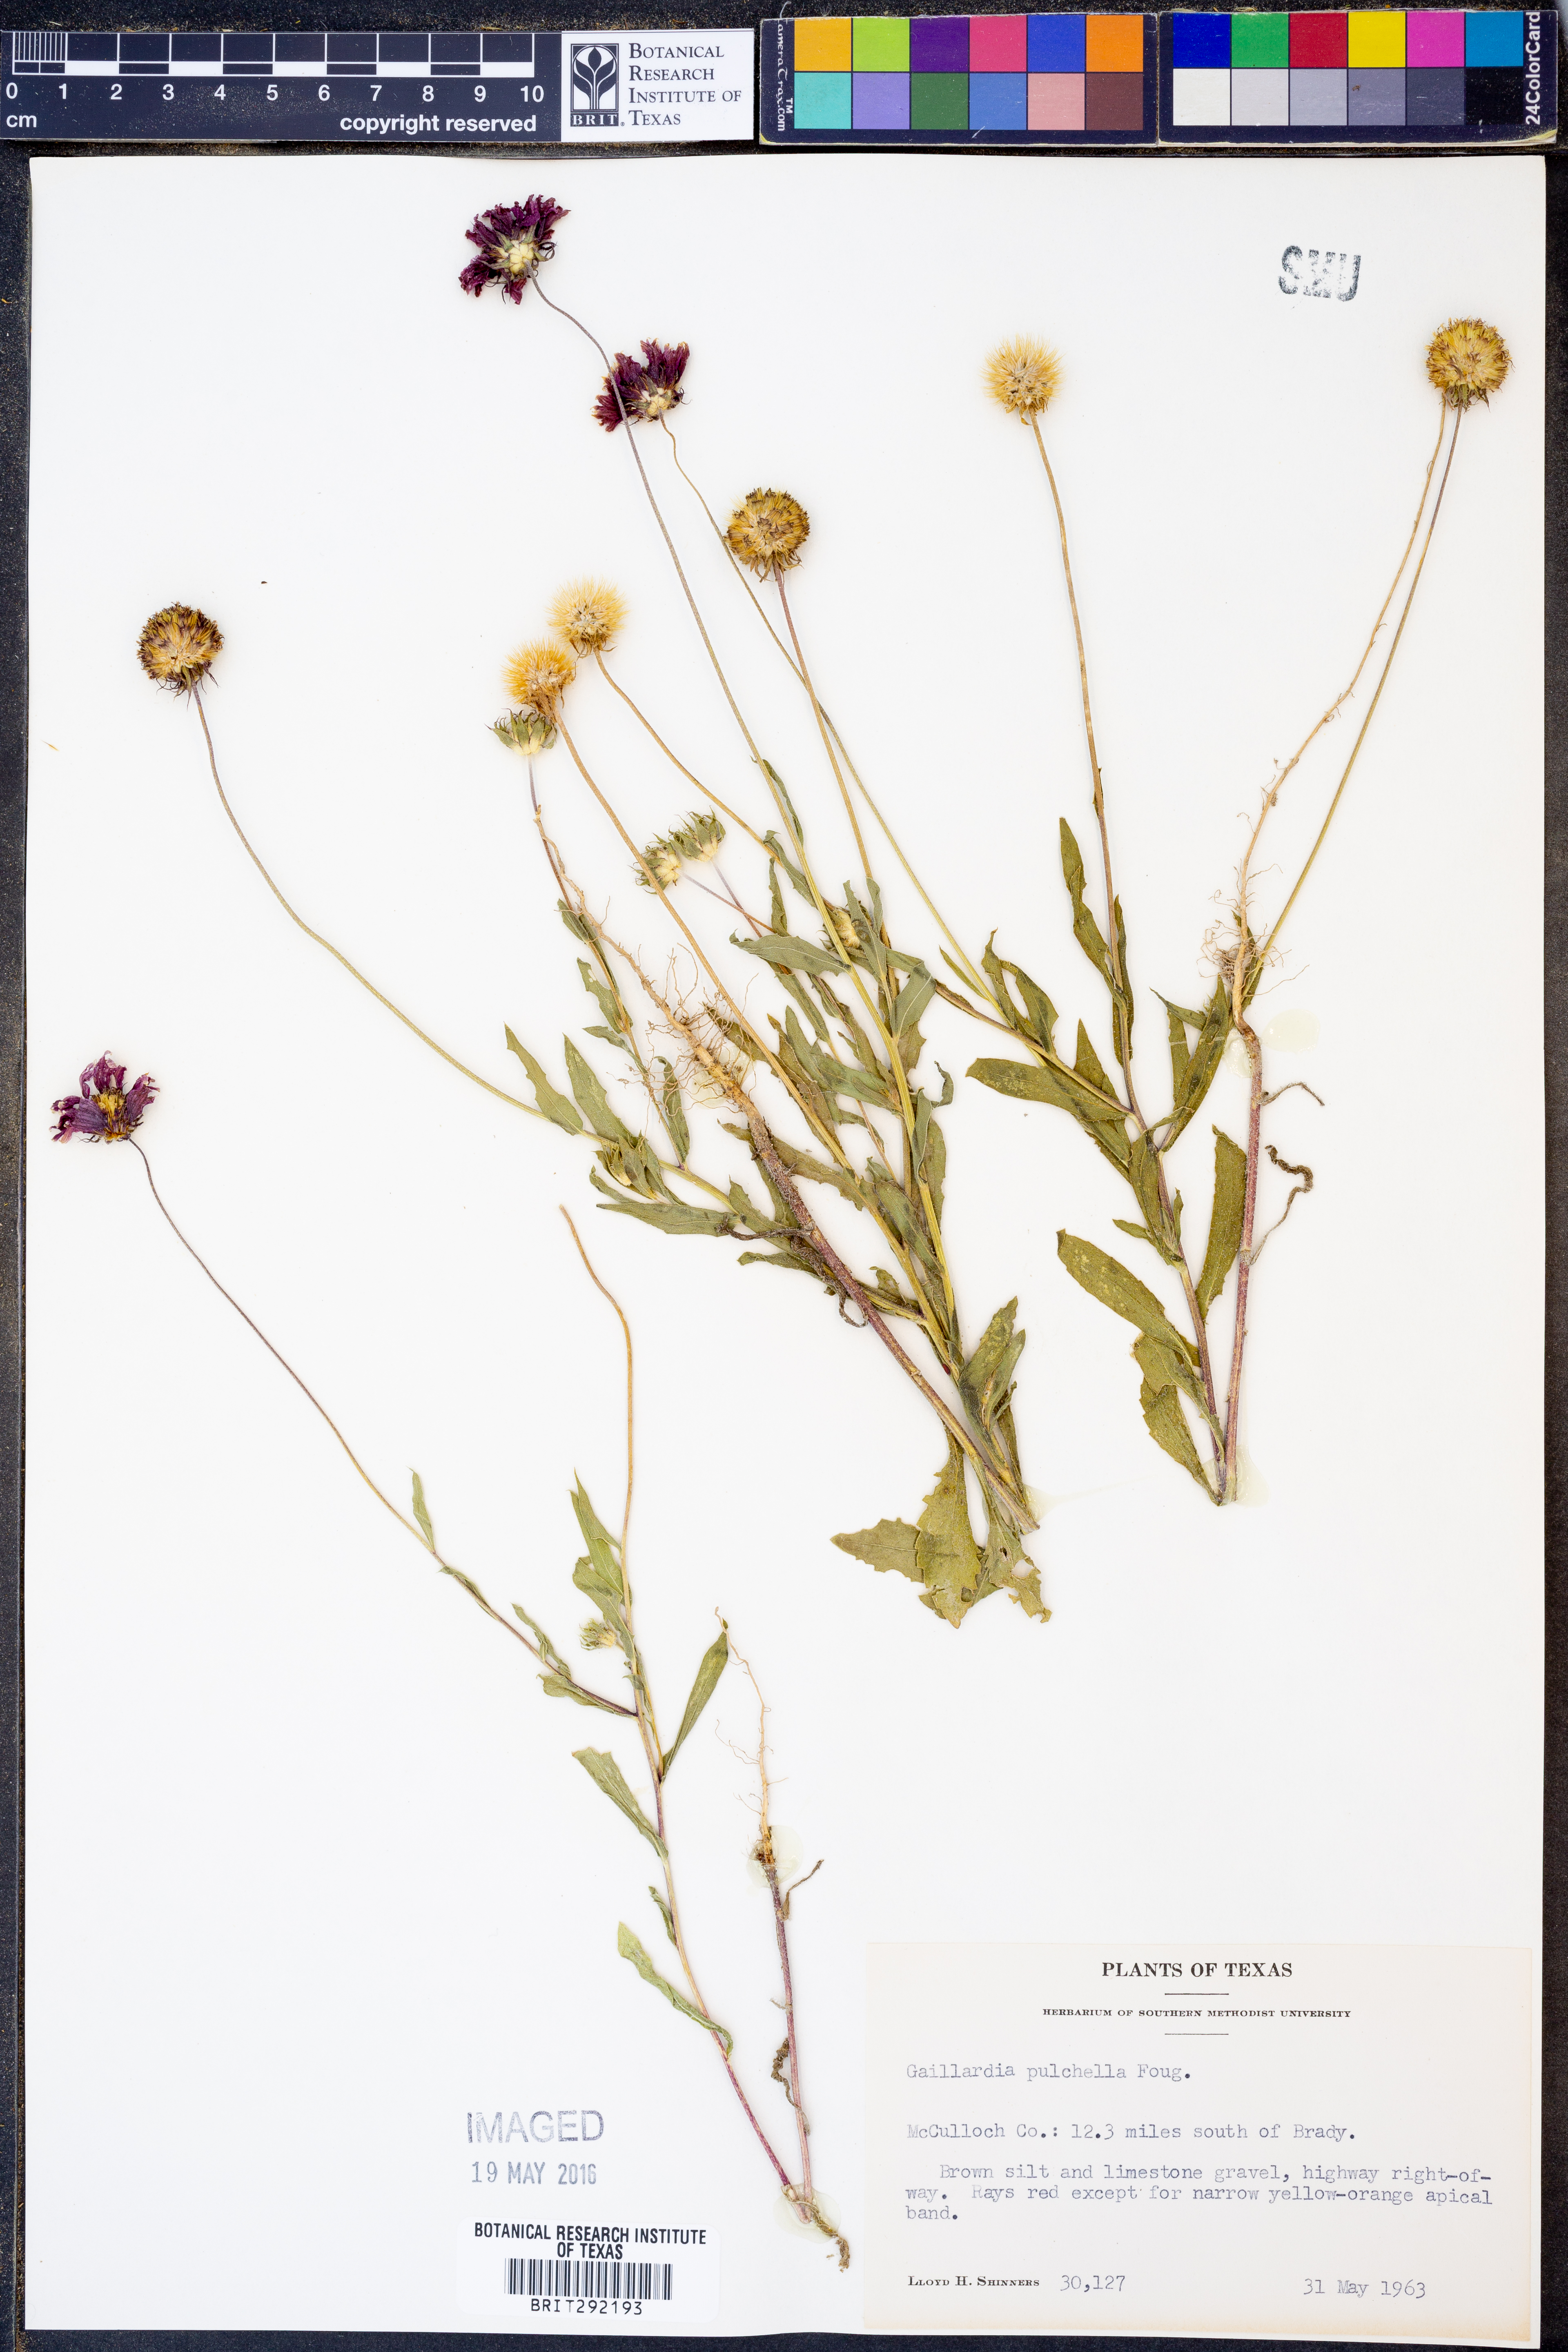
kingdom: Plantae
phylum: Tracheophyta
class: Magnoliopsida
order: Asterales
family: Asteraceae
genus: Gaillardia
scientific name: Gaillardia pulchella
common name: Firewheel
